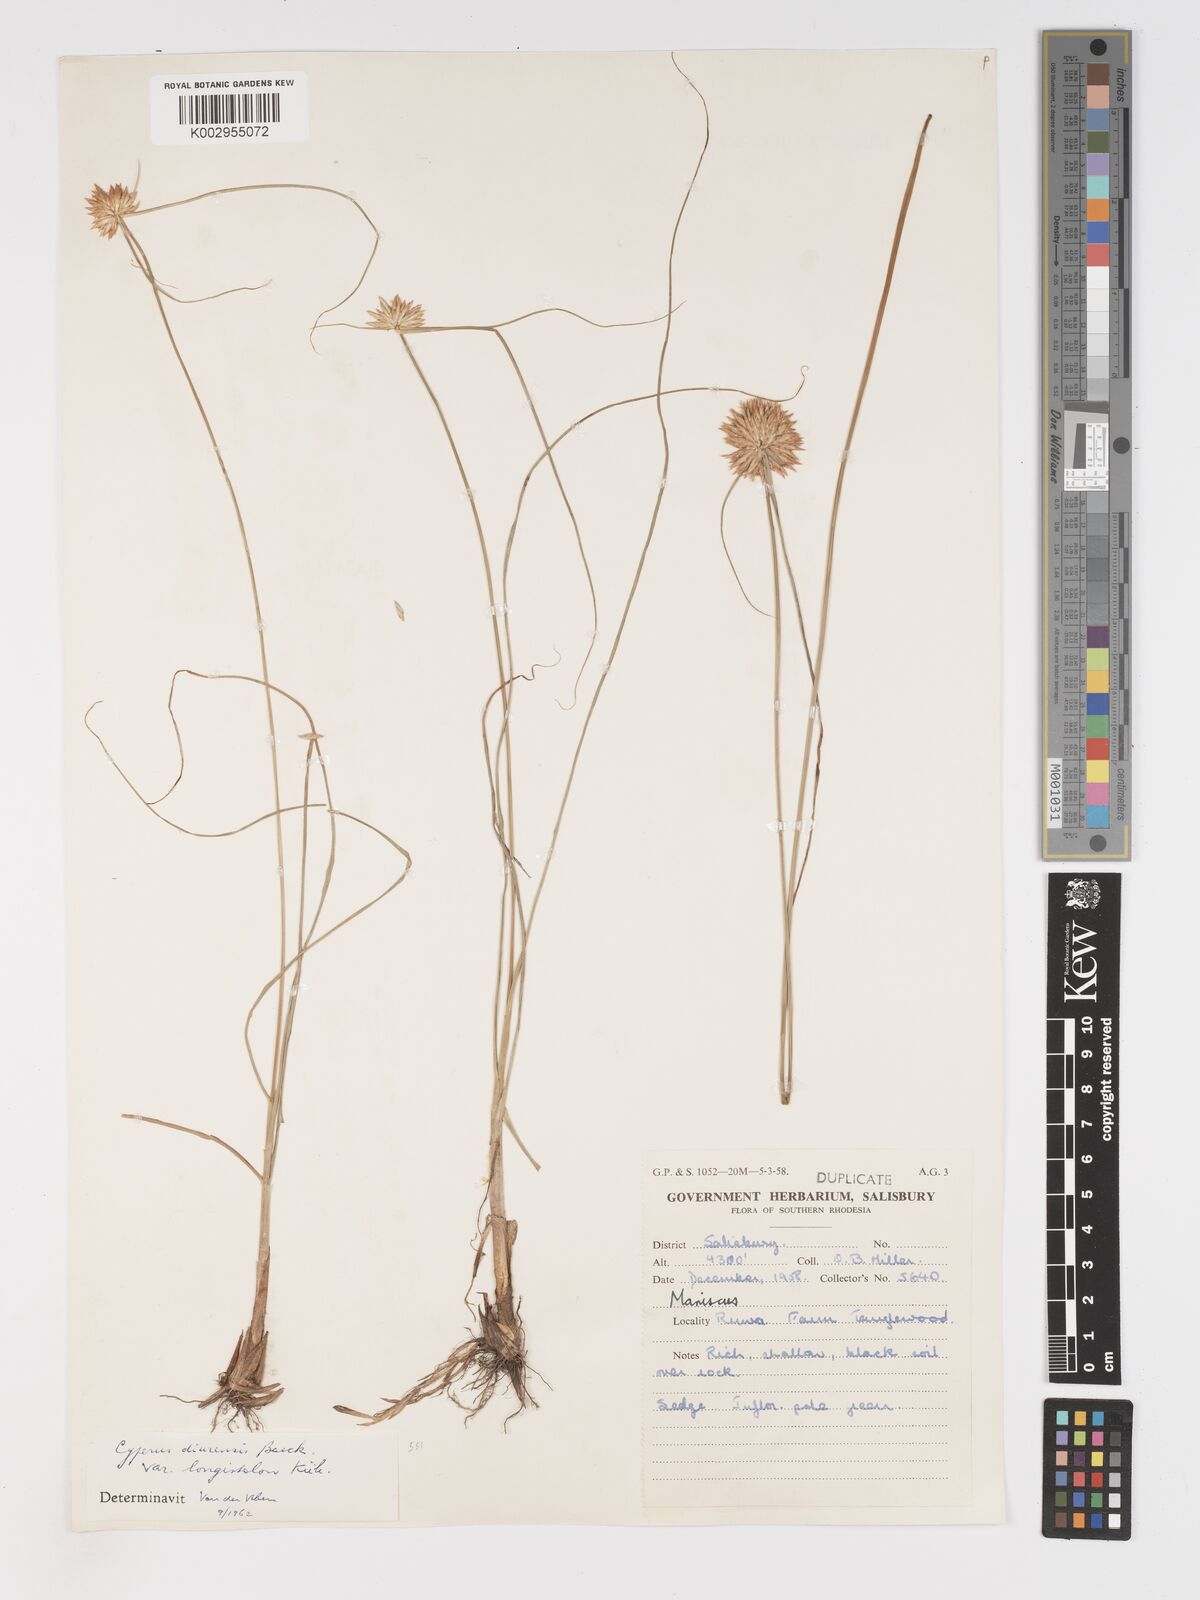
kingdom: Plantae
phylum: Tracheophyta
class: Liliopsida
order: Poales
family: Cyperaceae
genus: Cyperus
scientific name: Cyperus diurensis
